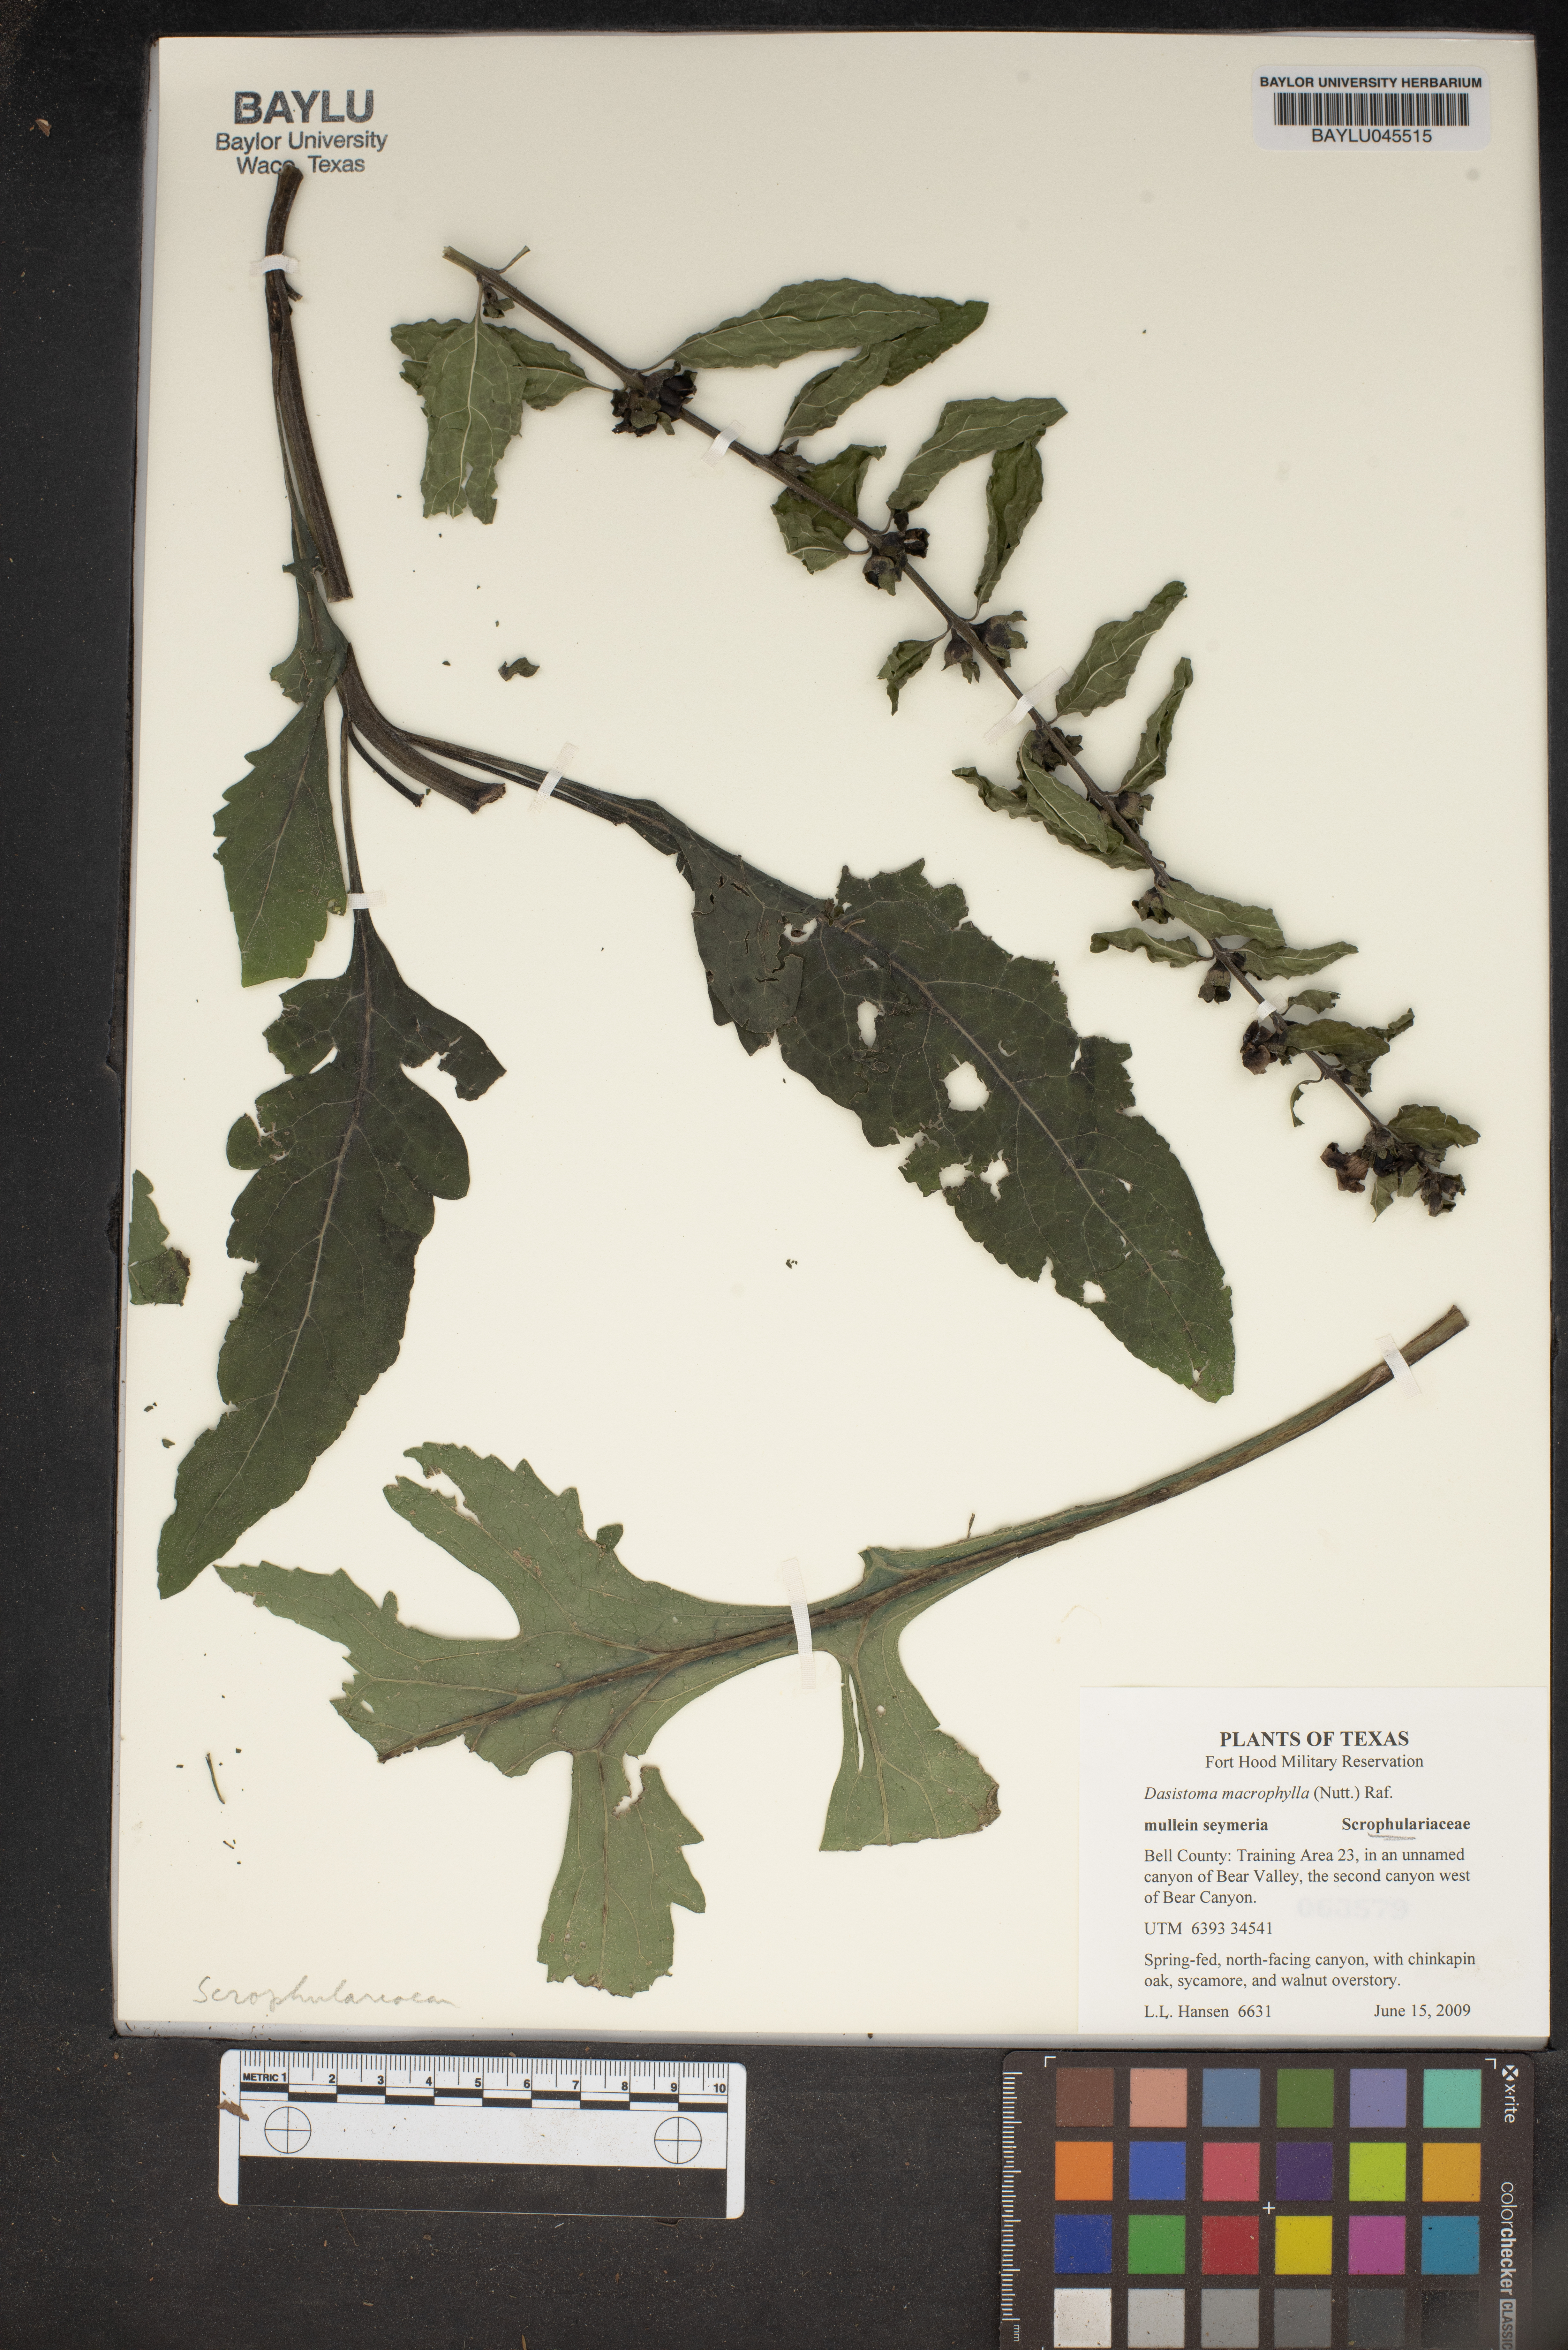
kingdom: Plantae
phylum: Tracheophyta
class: Magnoliopsida
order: Lamiales
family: Orobanchaceae
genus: Dasistoma
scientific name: Dasistoma macrophyllum
